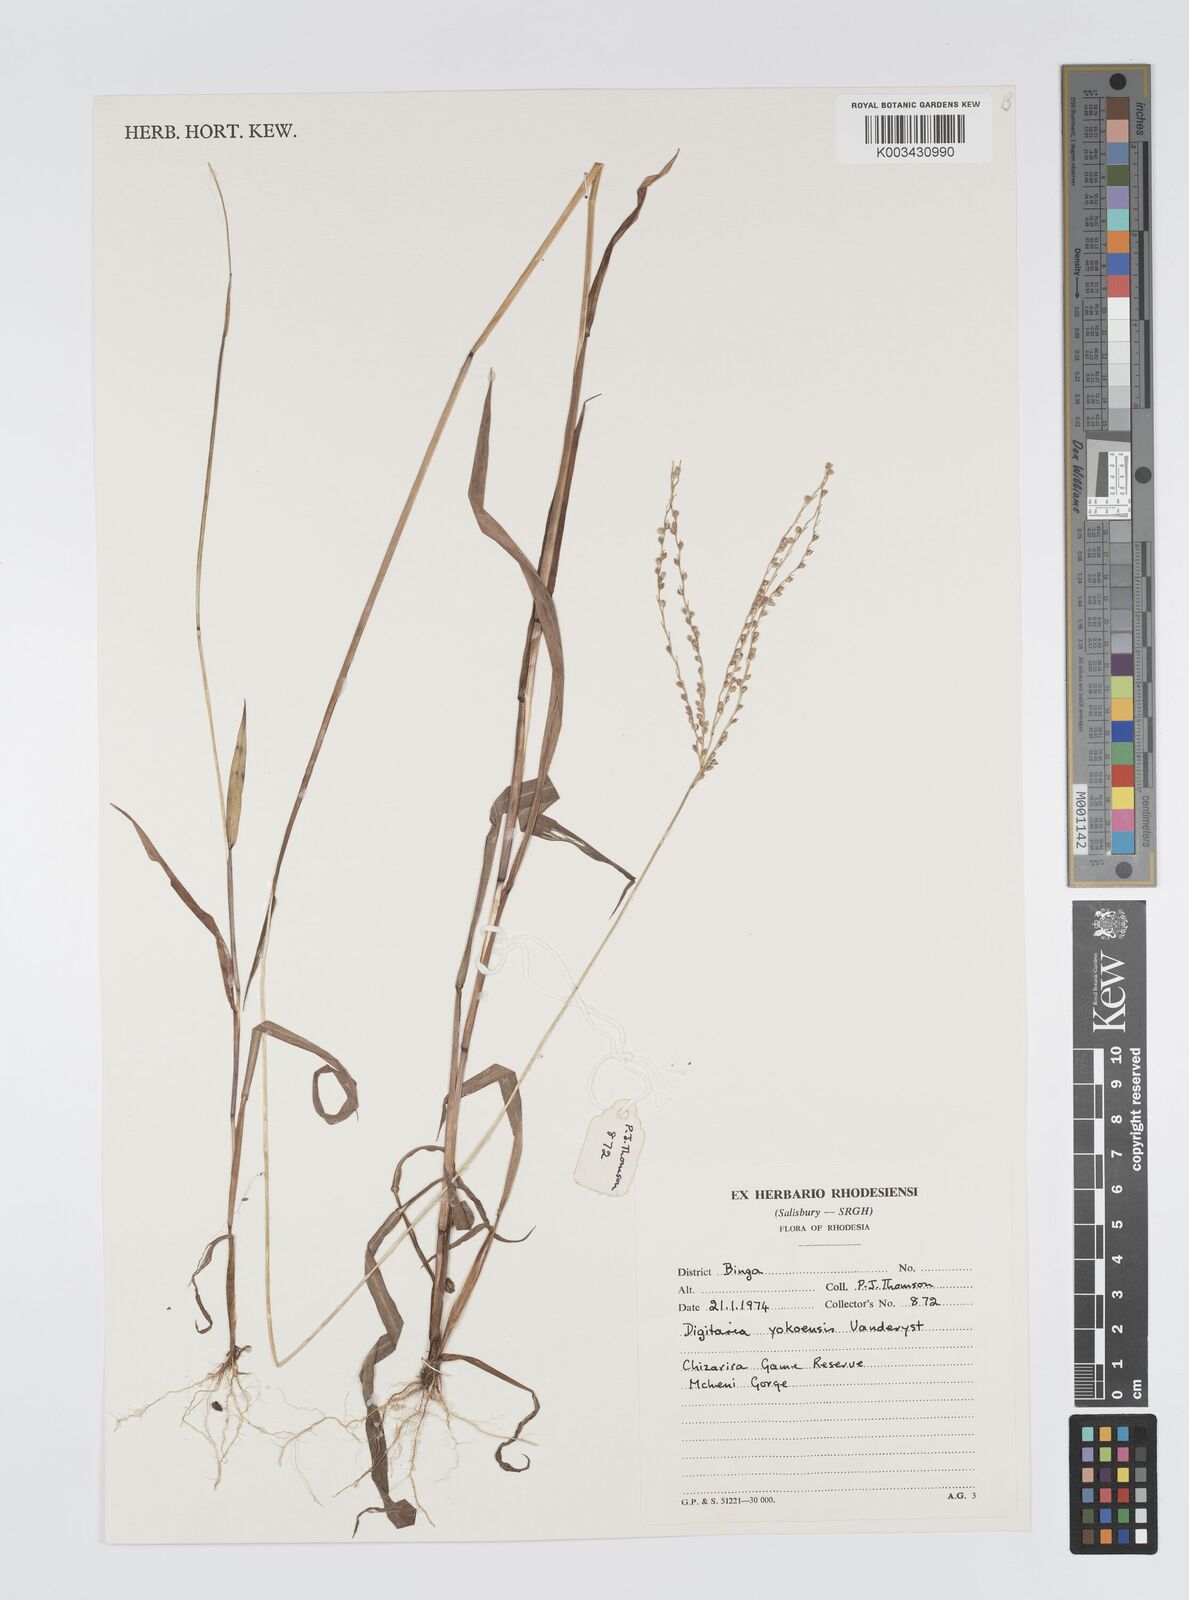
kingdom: Plantae
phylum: Tracheophyta
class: Liliopsida
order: Poales
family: Poaceae
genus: Digitaria
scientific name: Digitaria angolensis
